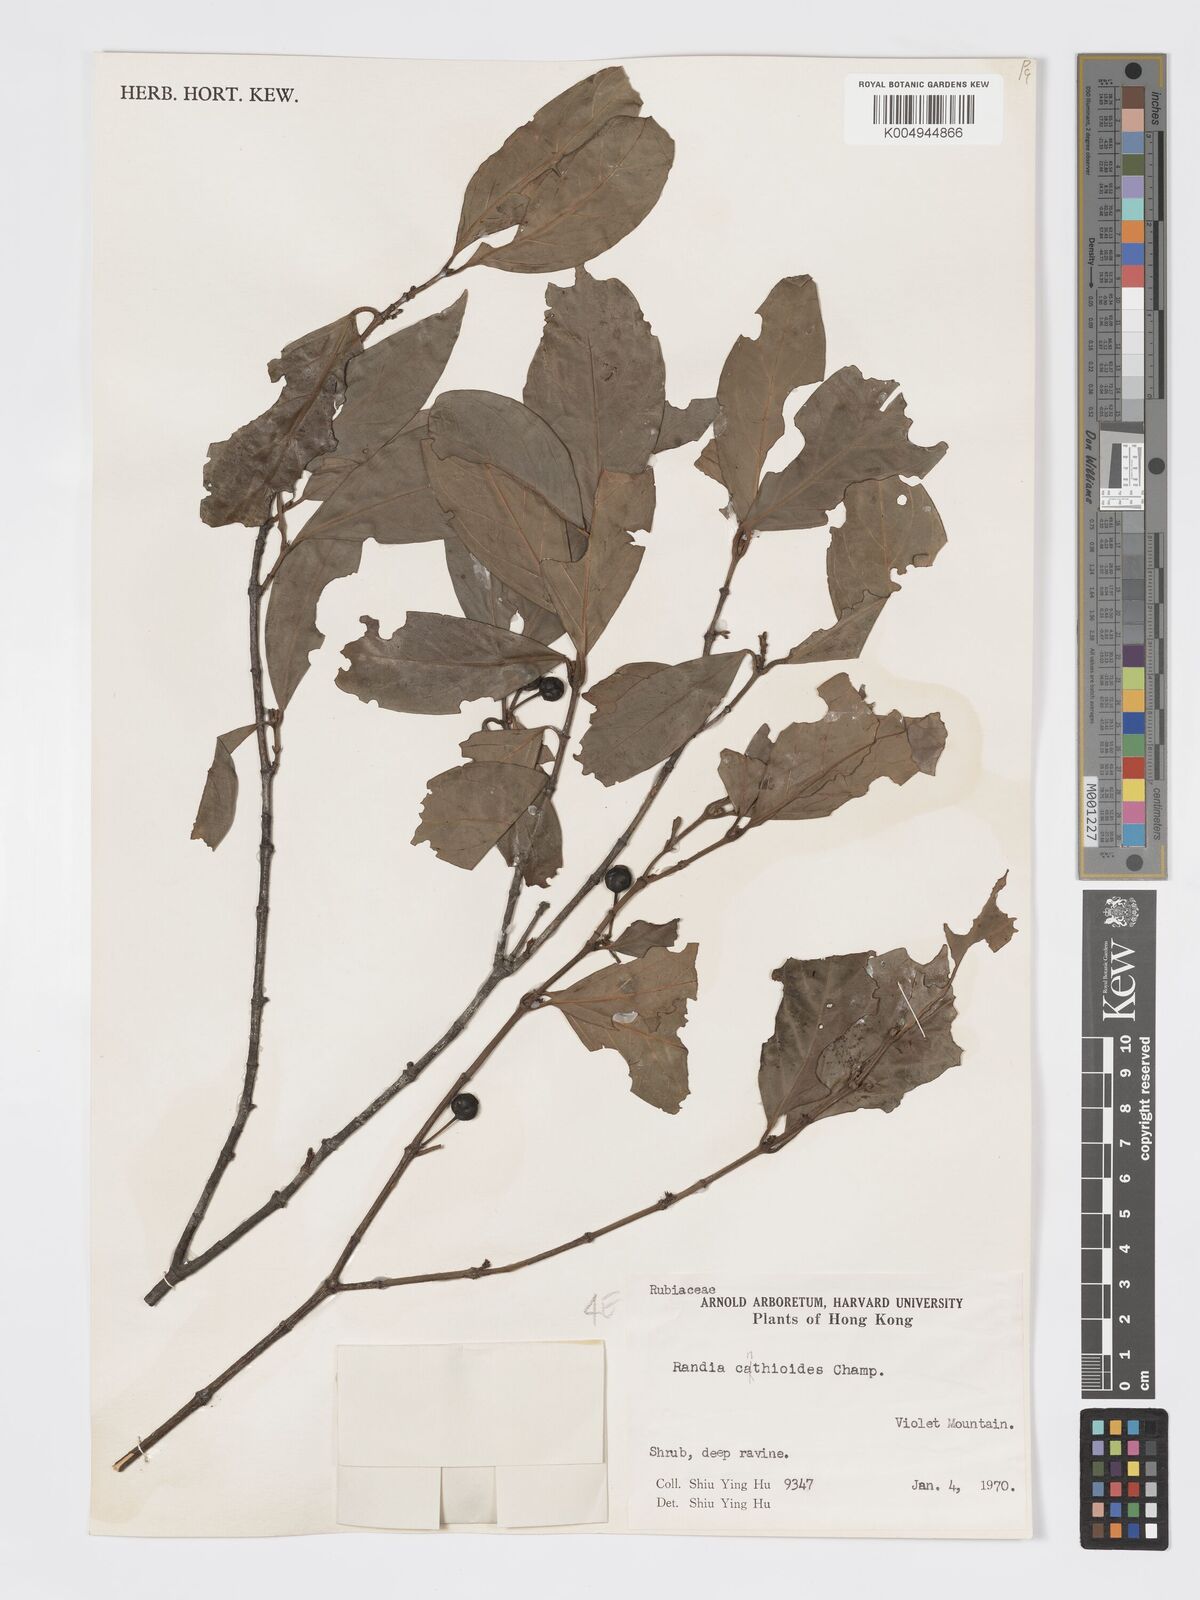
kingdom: Plantae
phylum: Tracheophyta
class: Magnoliopsida
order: Gentianales
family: Rubiaceae
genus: Aidia
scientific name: Aidia canthioides
